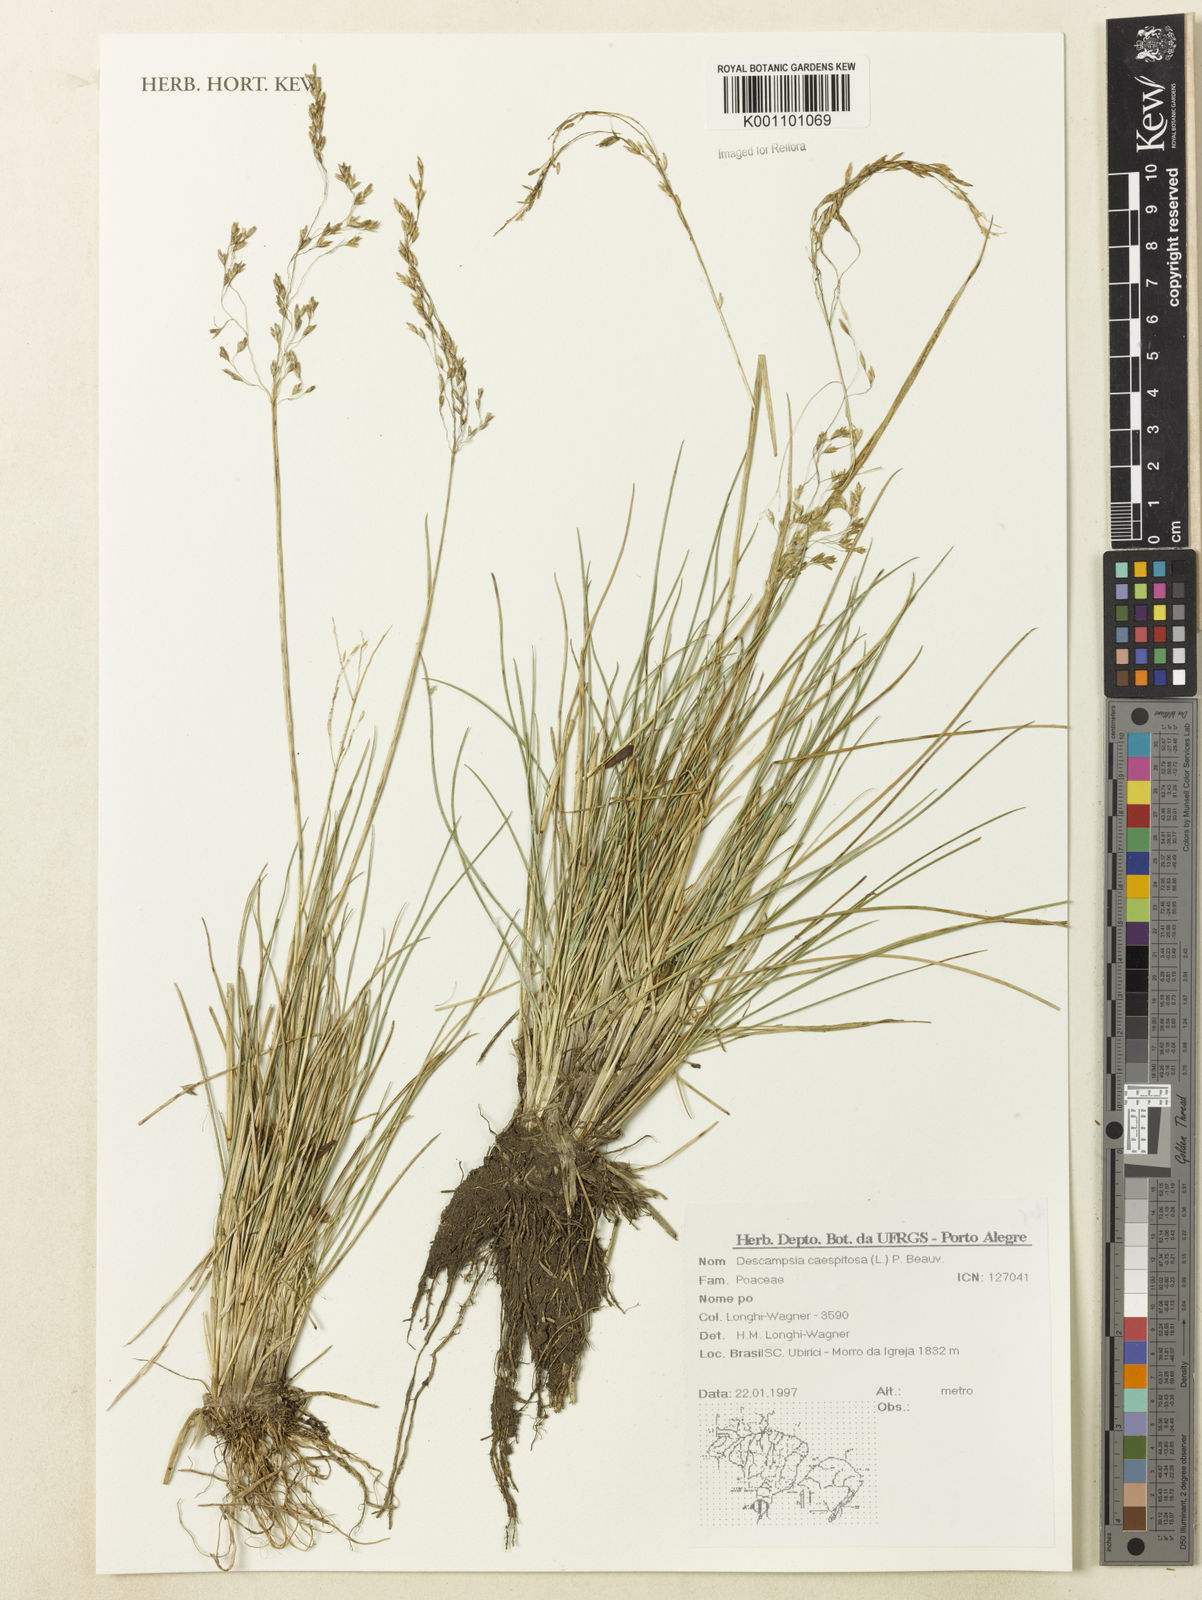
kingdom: Plantae
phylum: Tracheophyta
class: Liliopsida
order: Poales
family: Poaceae
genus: Deschampsia
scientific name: Deschampsia
